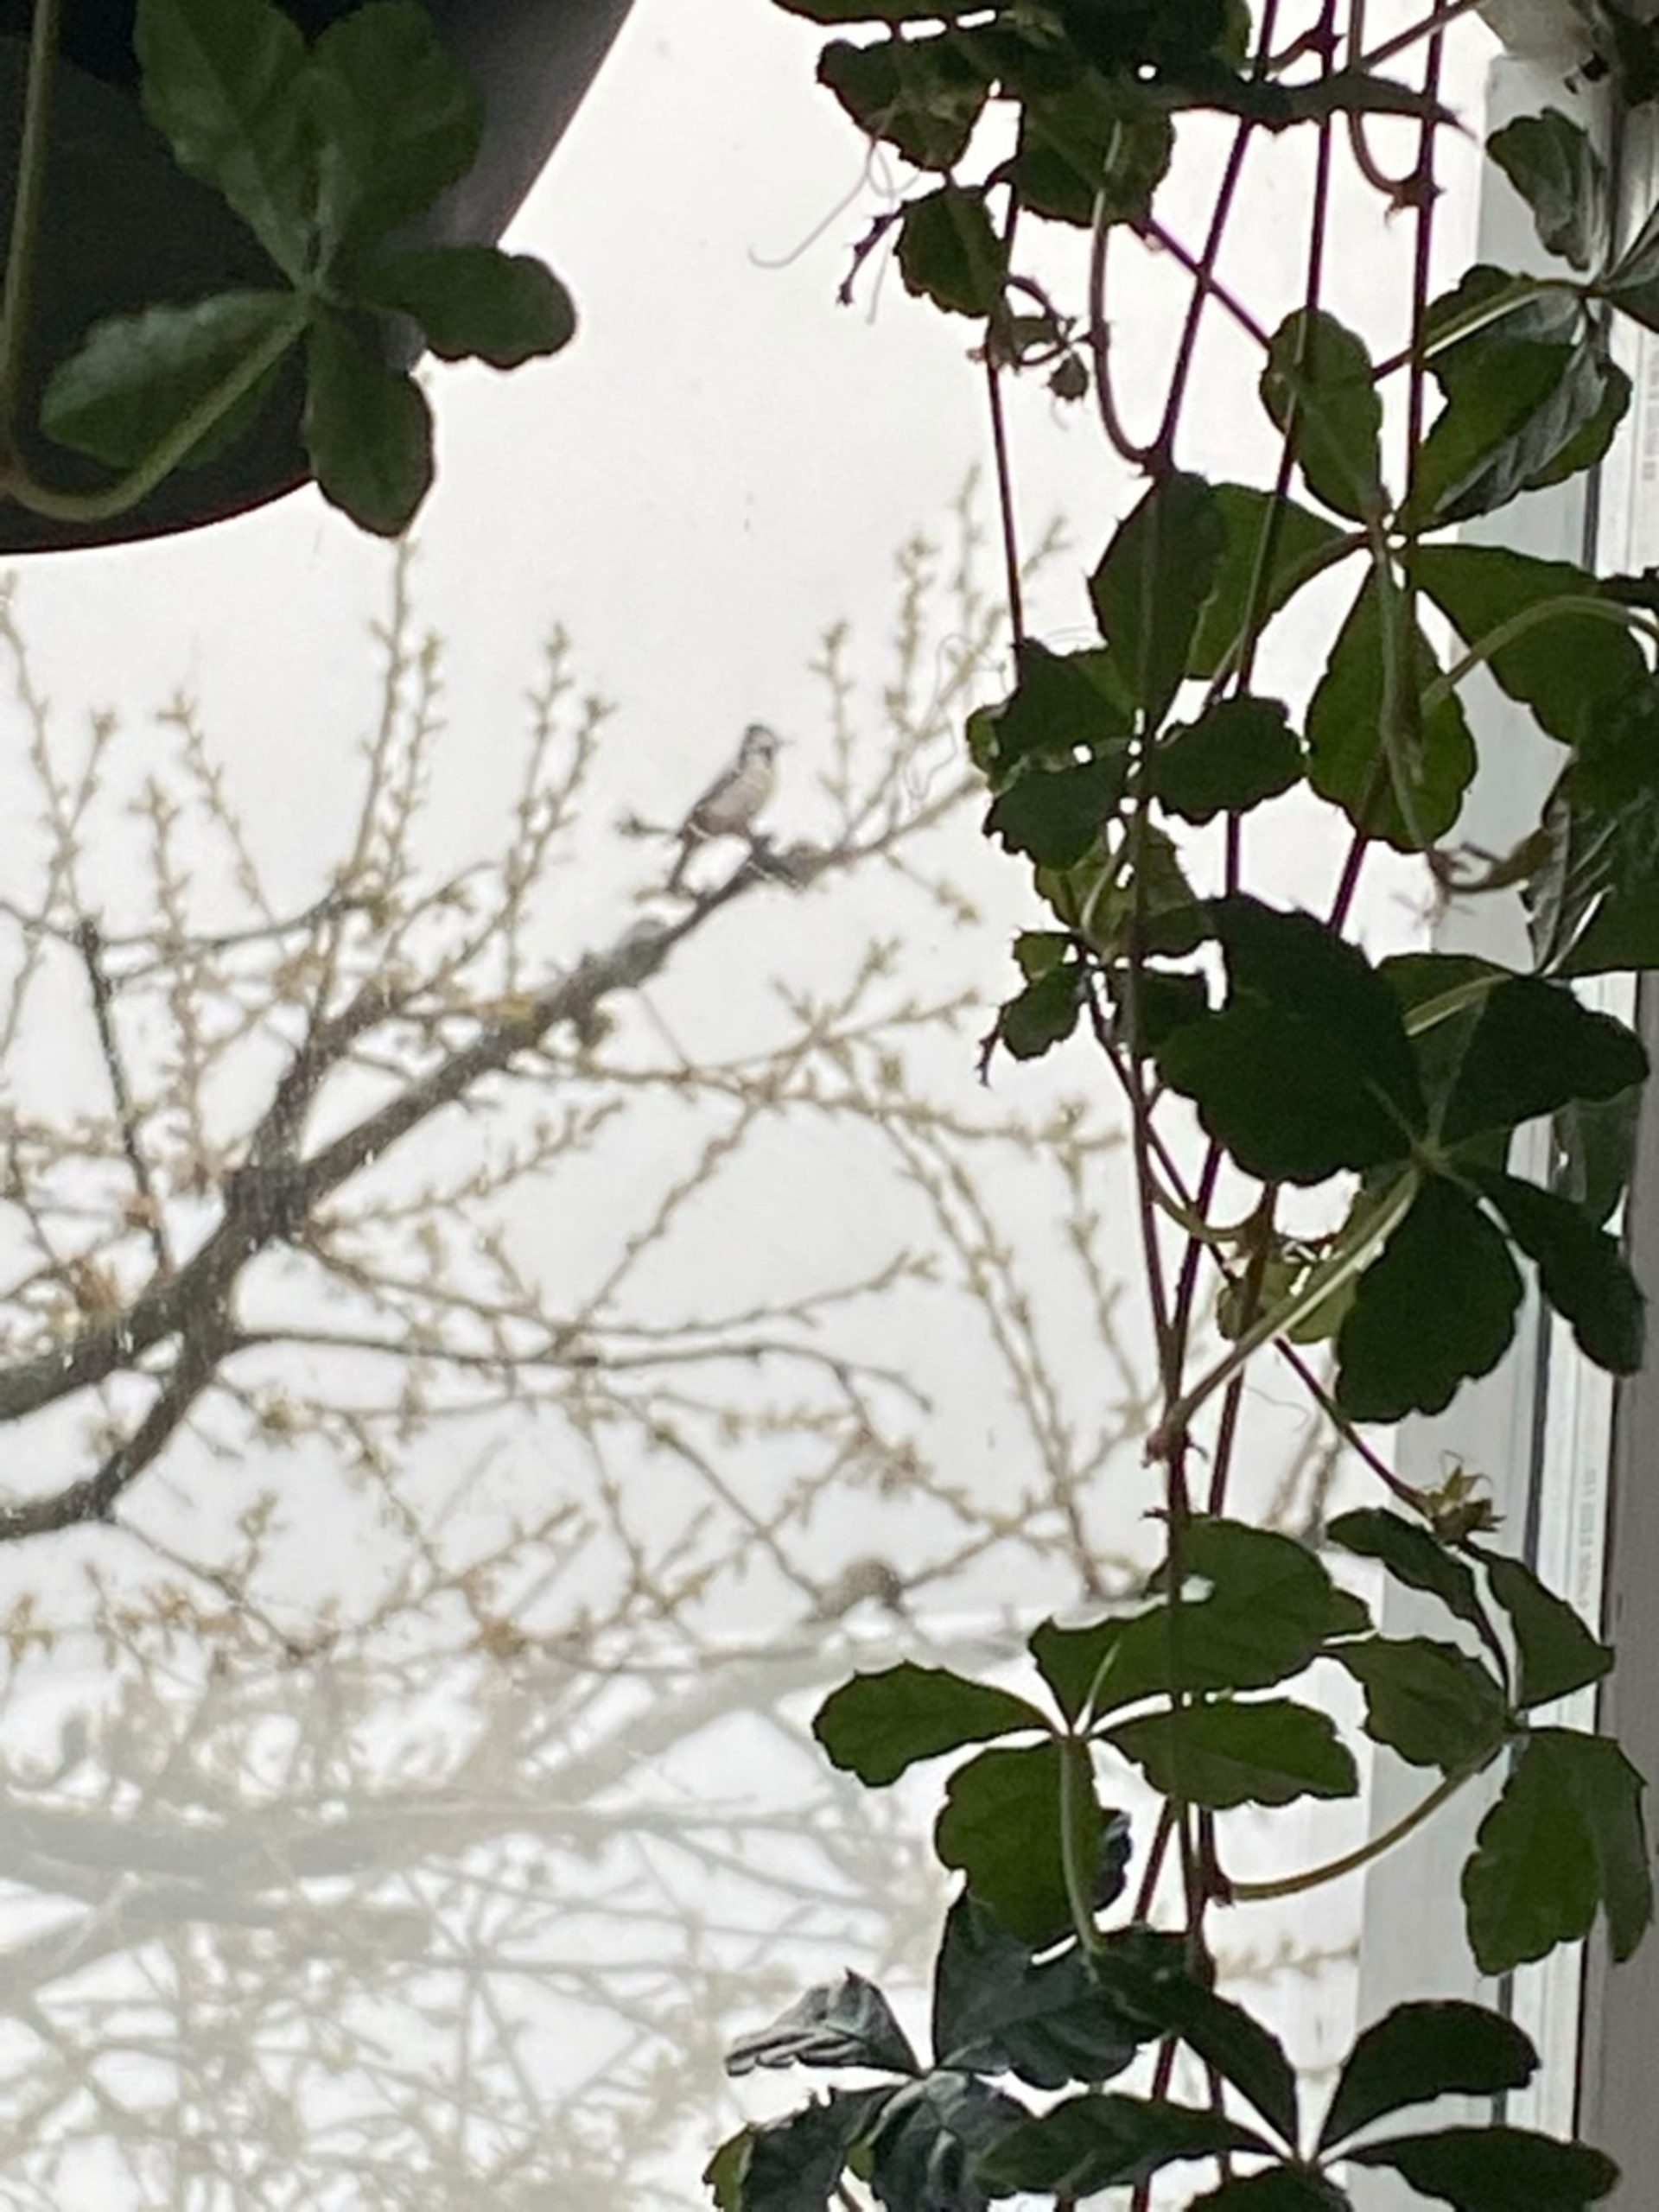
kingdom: Animalia
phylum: Chordata
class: Aves
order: Piciformes
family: Picidae
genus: Dendrocopos
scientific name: Dendrocopos major
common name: Stor flagspætte
